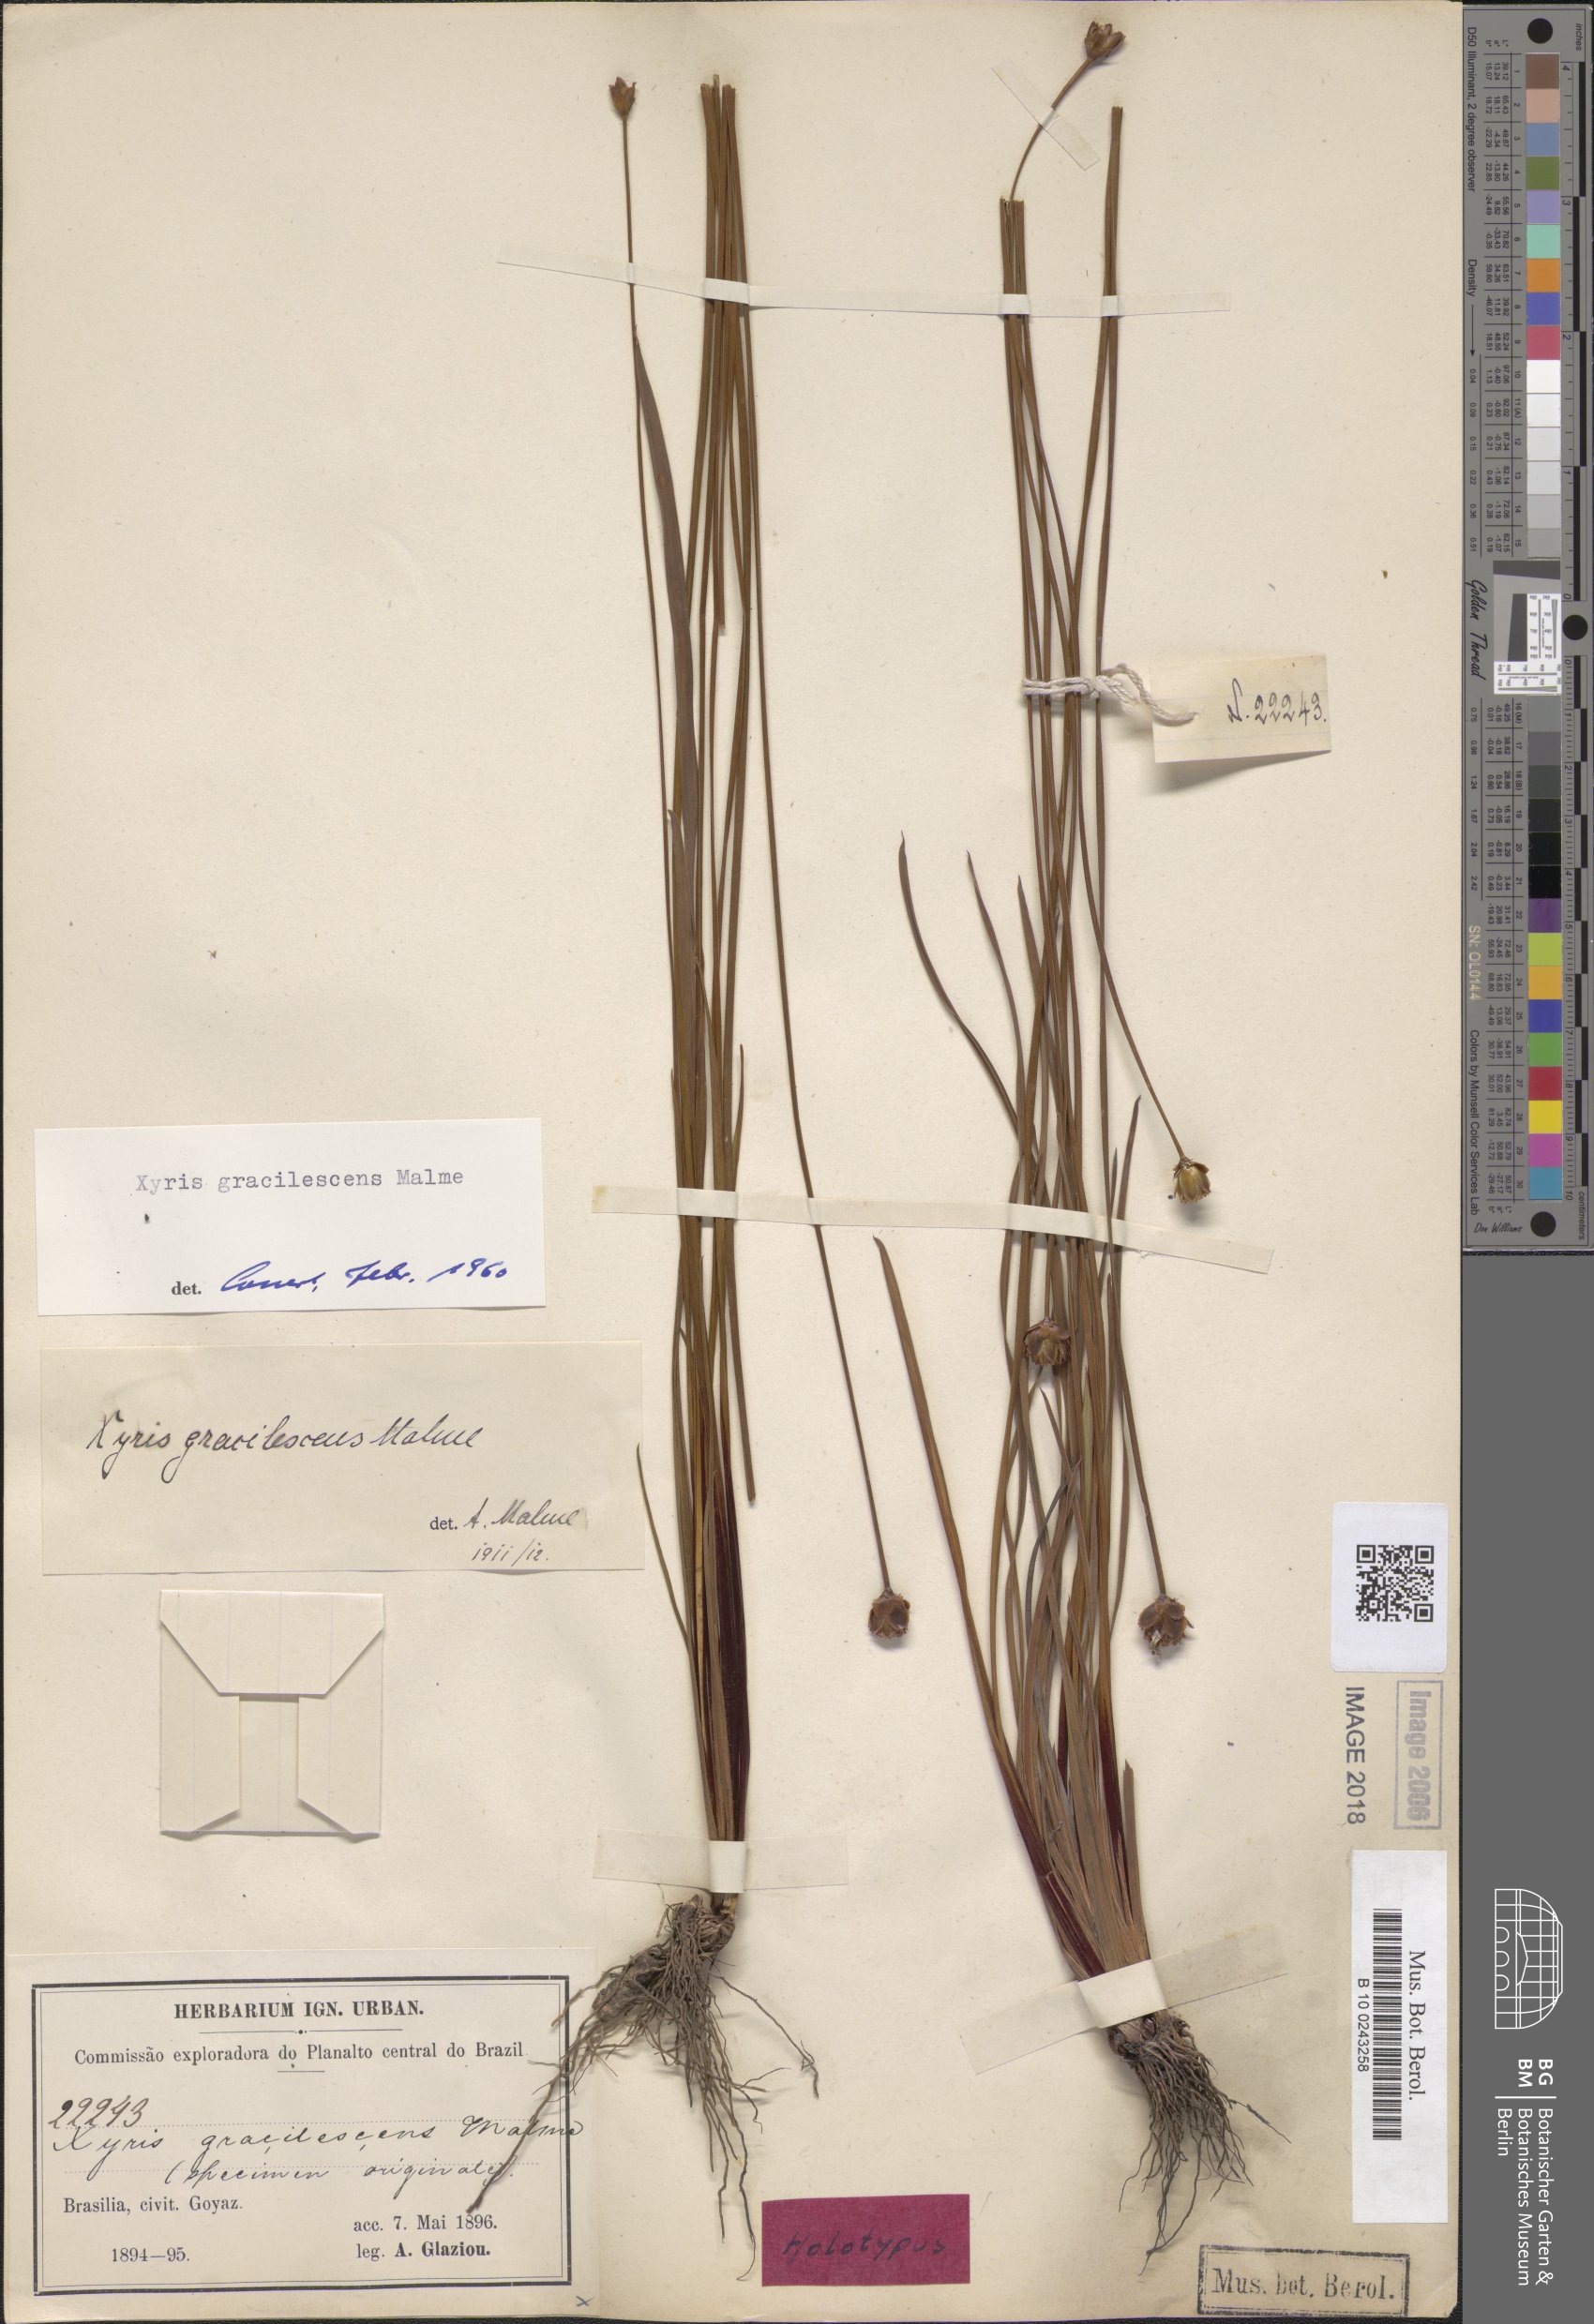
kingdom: Plantae
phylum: Tracheophyta
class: Liliopsida
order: Poales
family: Xyridaceae
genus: Xyris
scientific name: Xyris schizachne
